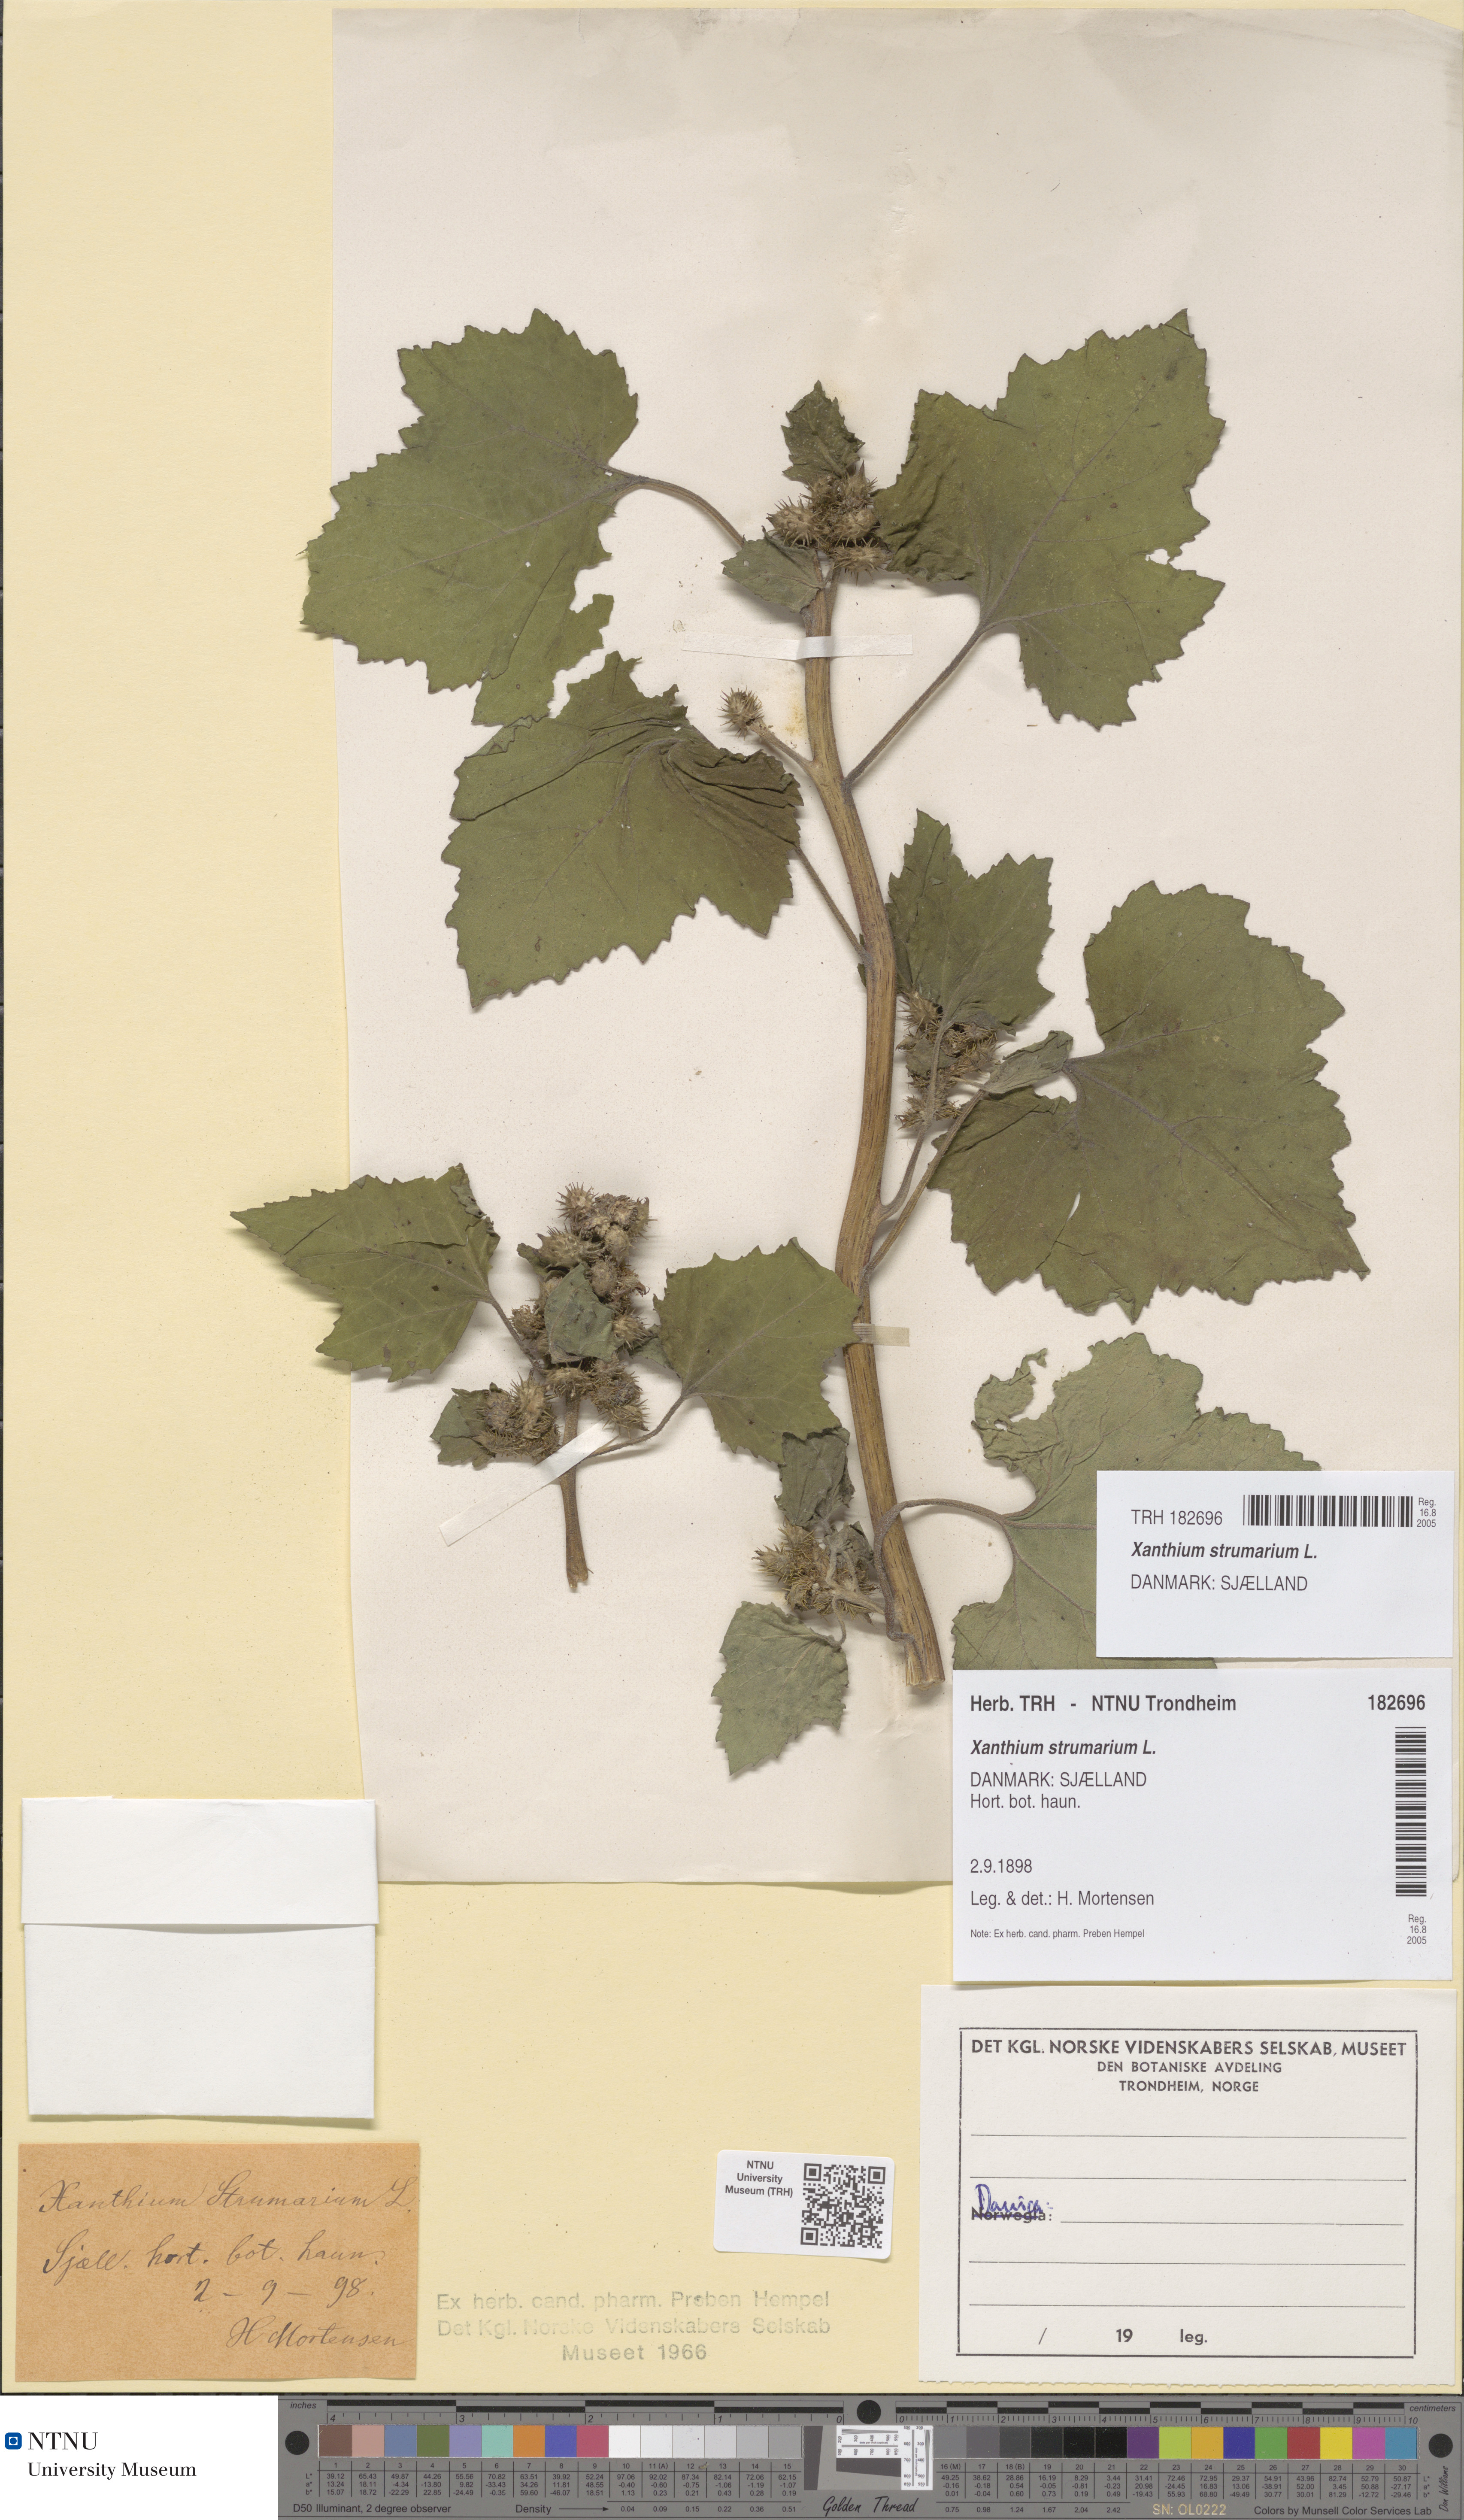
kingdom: Plantae
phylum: Tracheophyta
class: Magnoliopsida
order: Asterales
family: Asteraceae
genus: Xanthium
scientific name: Xanthium strumarium
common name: Rough cocklebur
